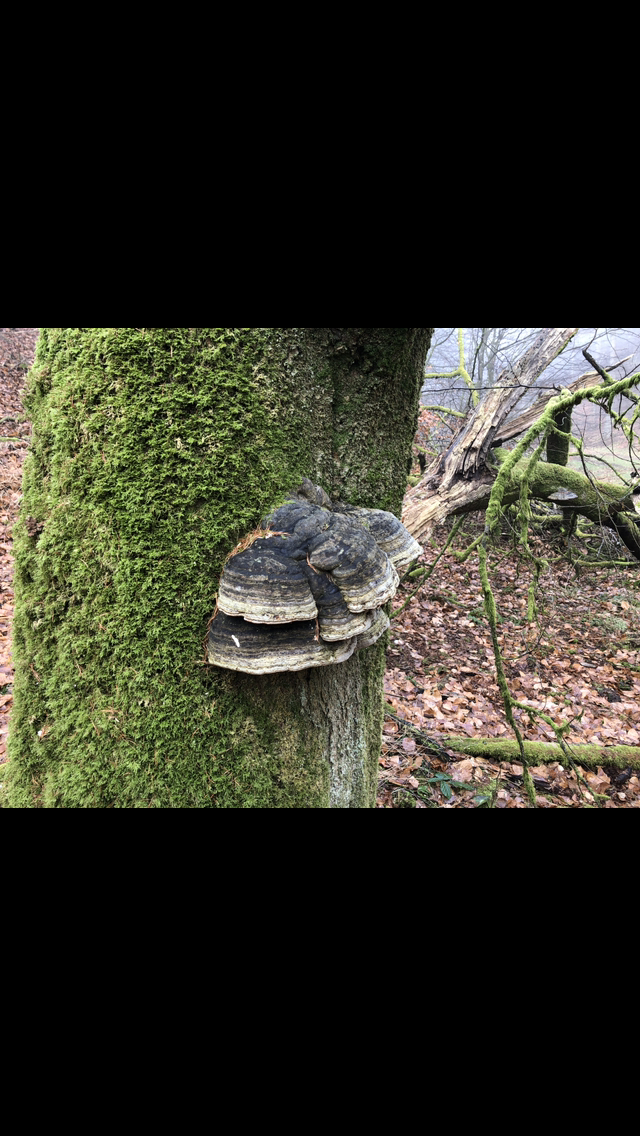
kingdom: Fungi
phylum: Basidiomycota
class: Agaricomycetes
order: Polyporales
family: Polyporaceae
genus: Fomes
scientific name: Fomes fomentarius
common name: tøndersvamp
